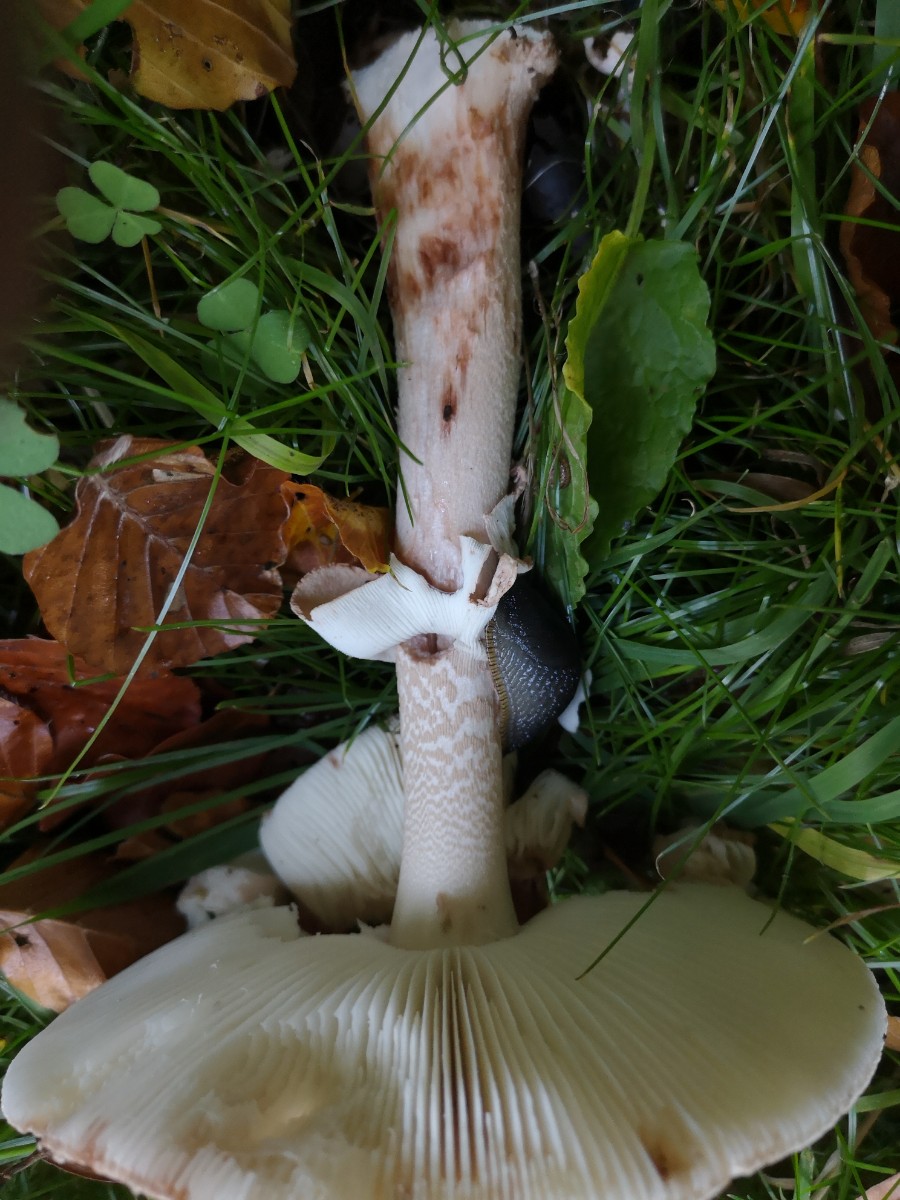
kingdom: Fungi
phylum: Basidiomycota
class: Agaricomycetes
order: Agaricales
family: Amanitaceae
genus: Amanita
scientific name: Amanita rubescens
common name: rødmende fluesvamp
